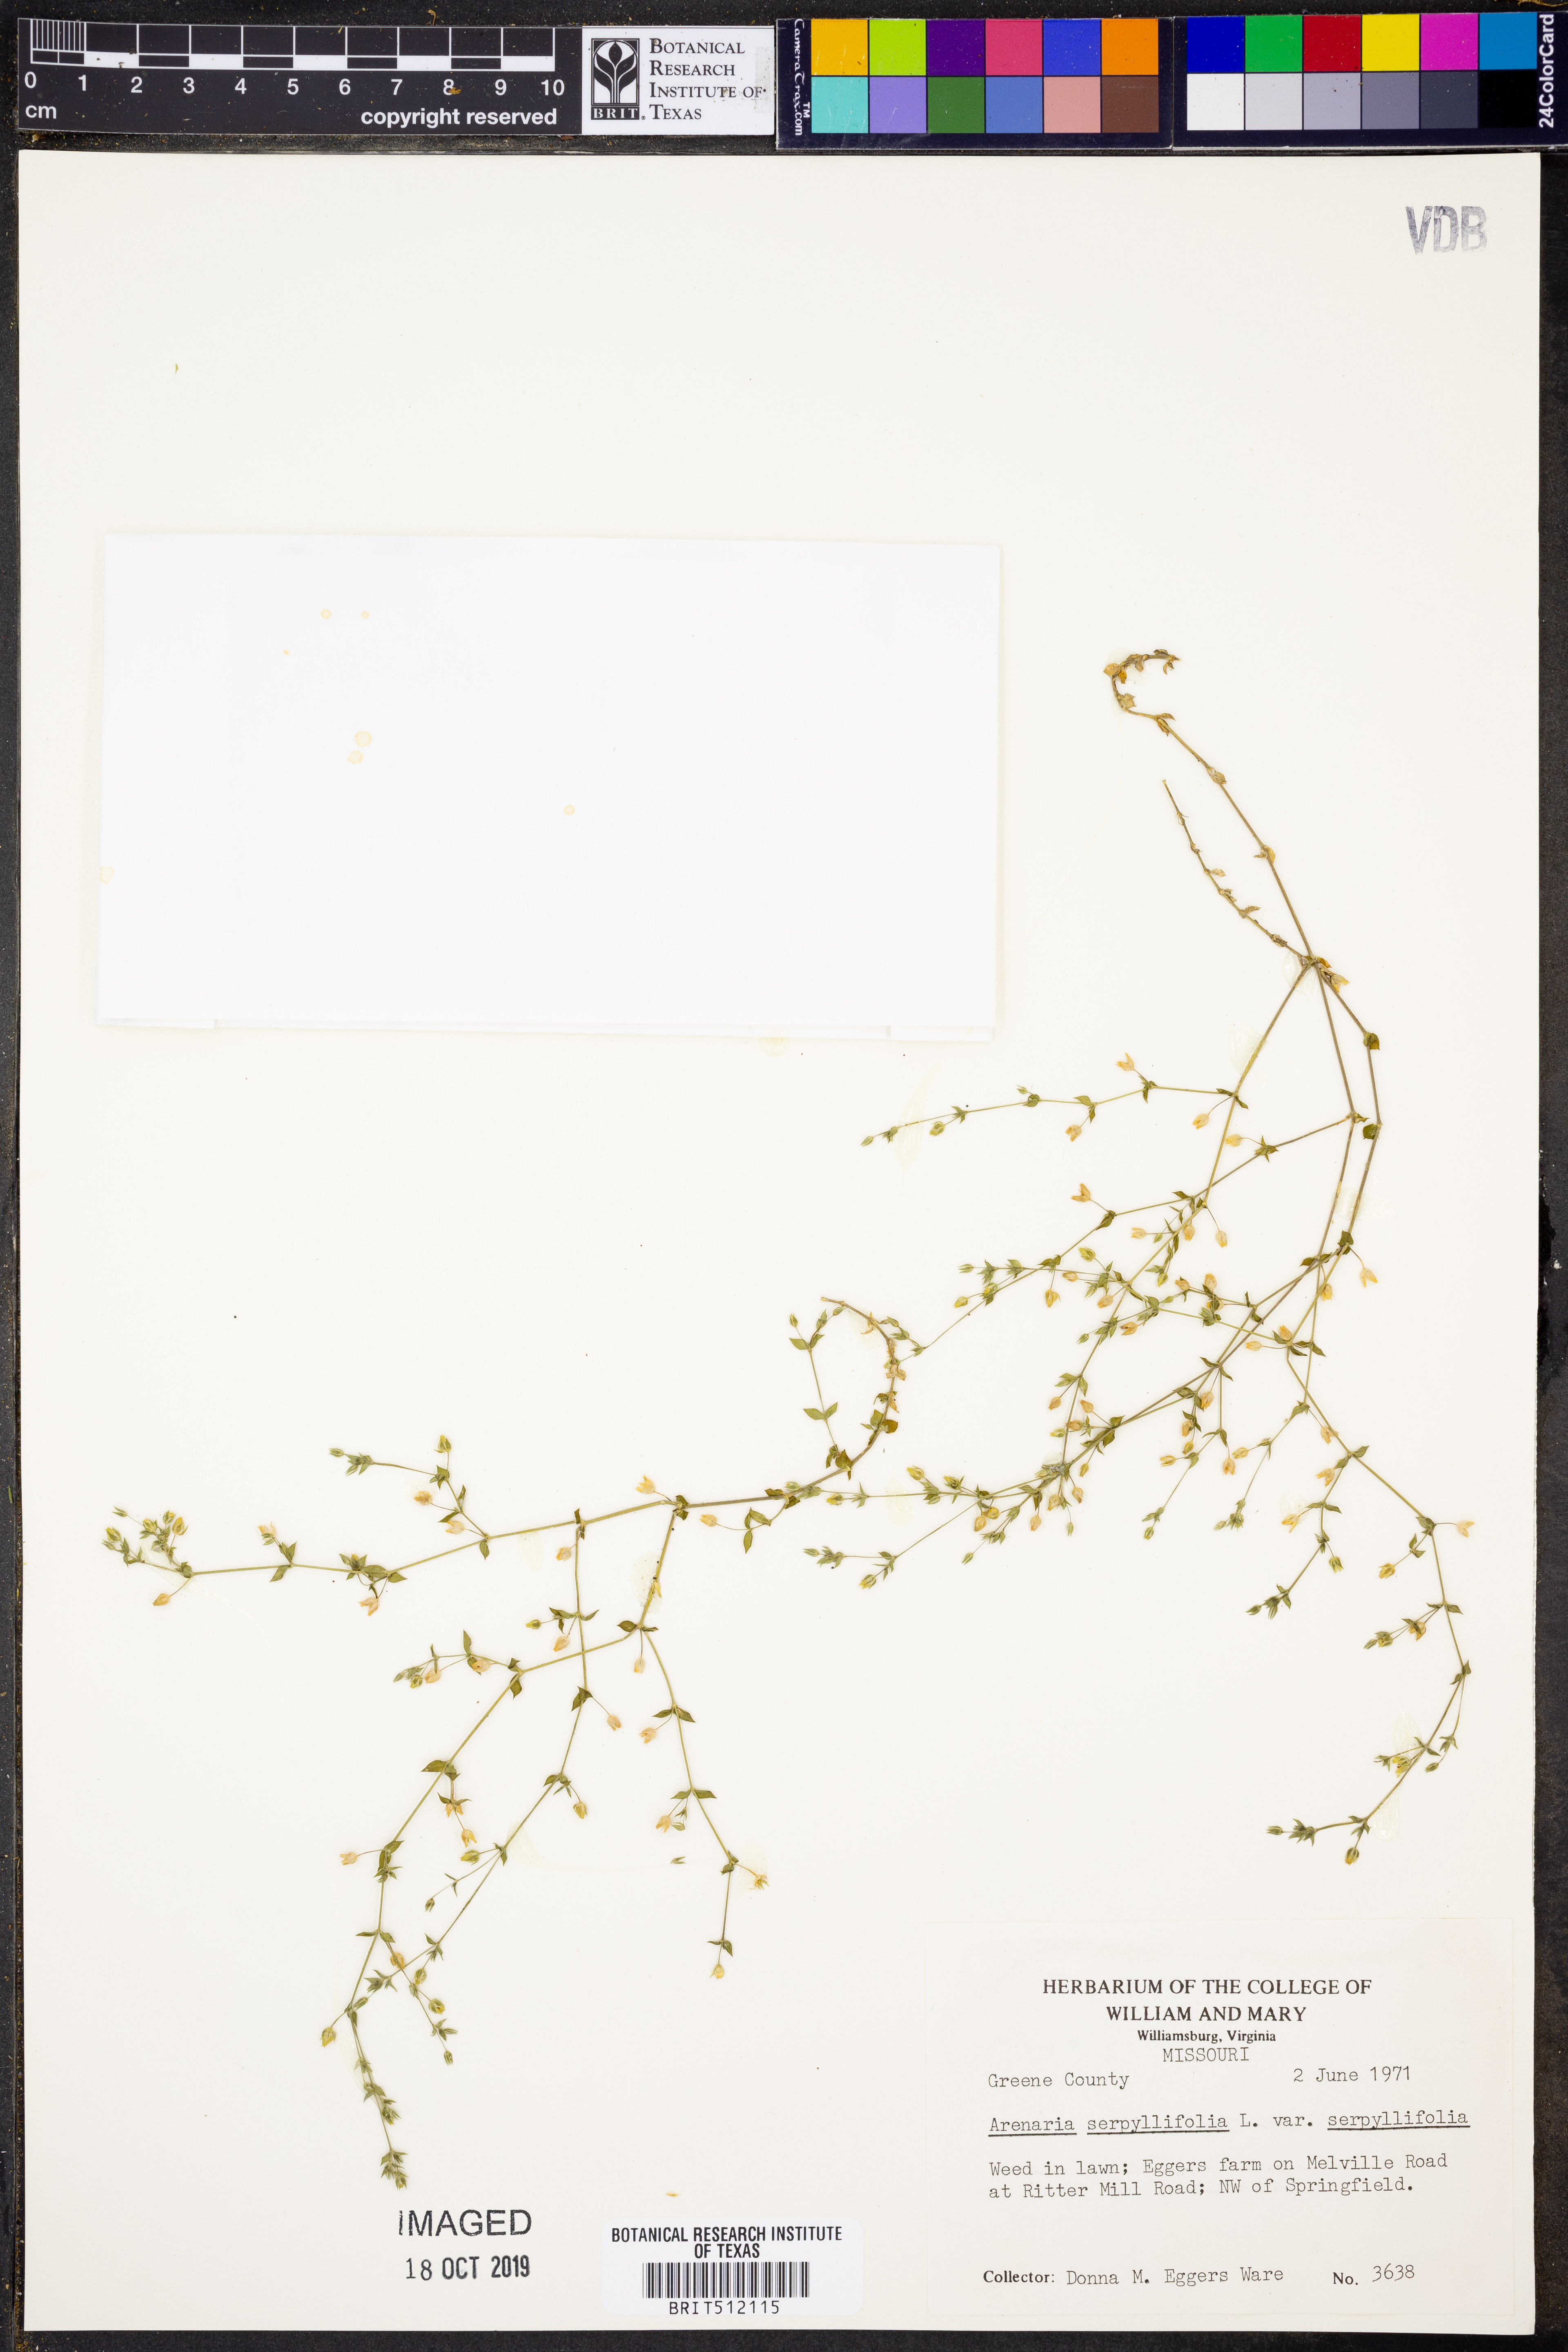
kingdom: Plantae
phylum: Tracheophyta
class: Magnoliopsida
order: Caryophyllales
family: Caryophyllaceae
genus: Arenaria
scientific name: Arenaria serpyllifolia
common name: Thyme-leaved sandwort
